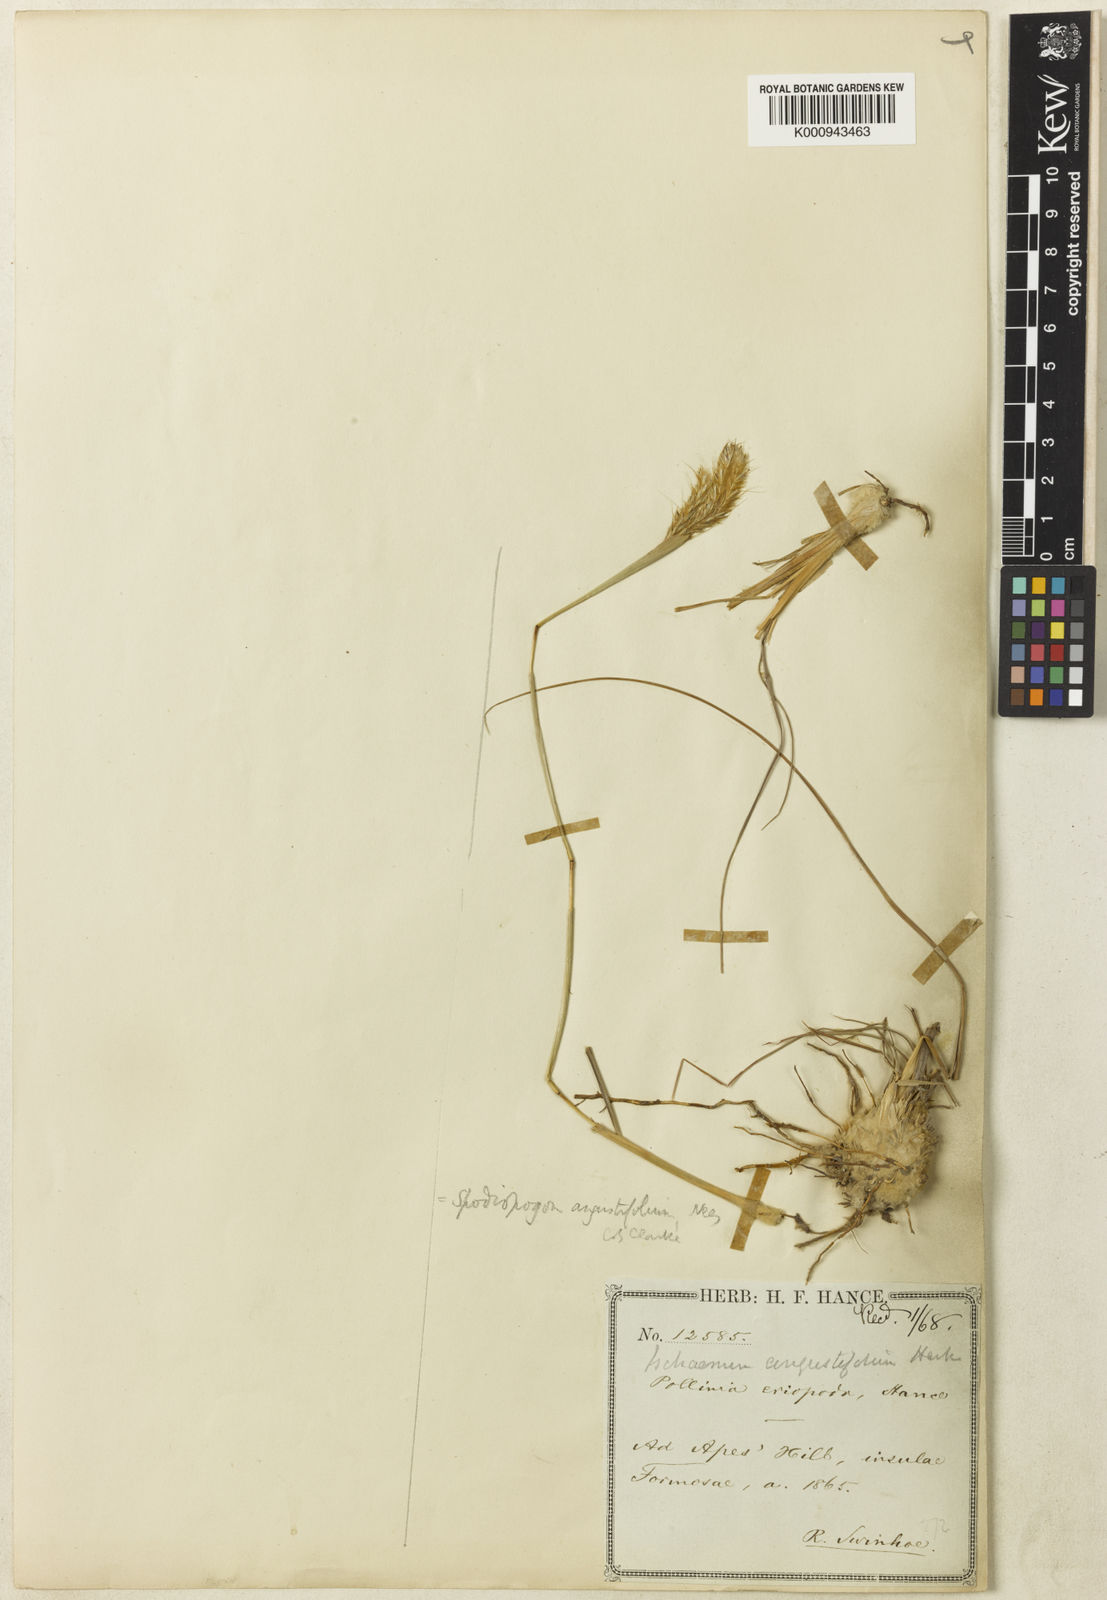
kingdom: Plantae
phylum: Tracheophyta
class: Liliopsida
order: Poales
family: Poaceae
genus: Eulaliopsis
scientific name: Eulaliopsis binata
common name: Baib grass
